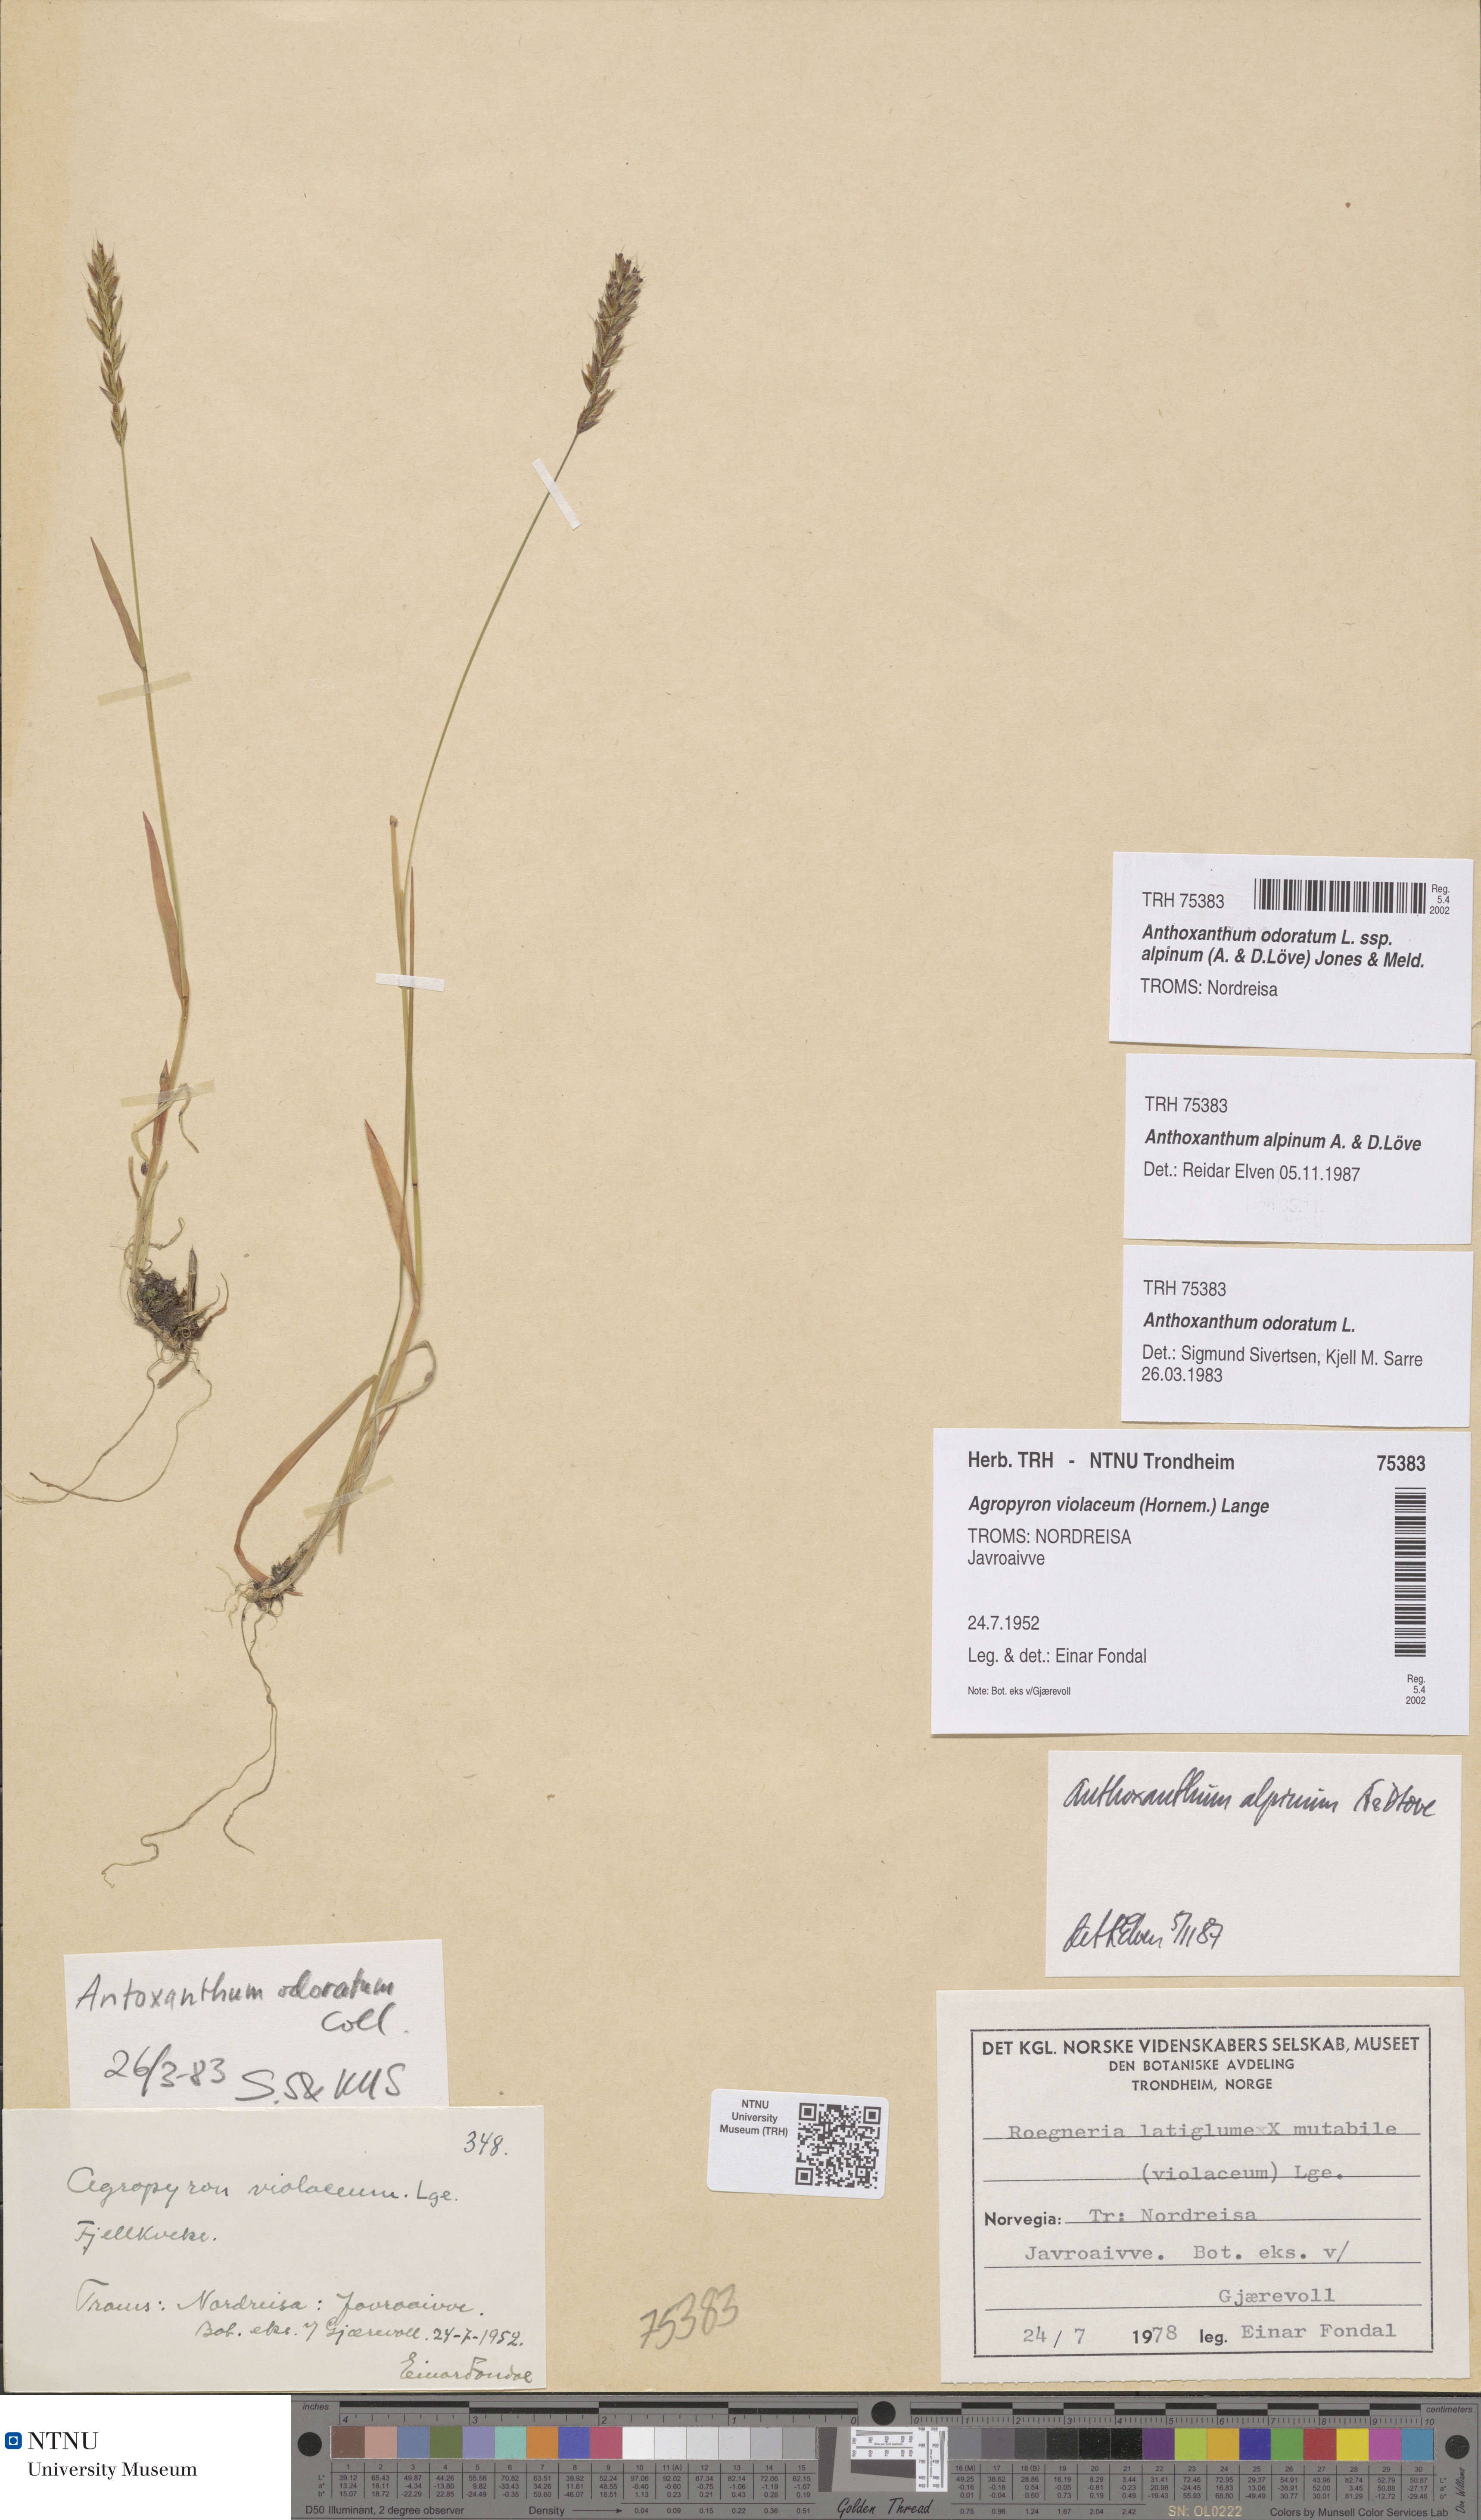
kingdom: Plantae
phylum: Tracheophyta
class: Liliopsida
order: Poales
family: Poaceae
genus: Anthoxanthum
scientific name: Anthoxanthum nipponicum
